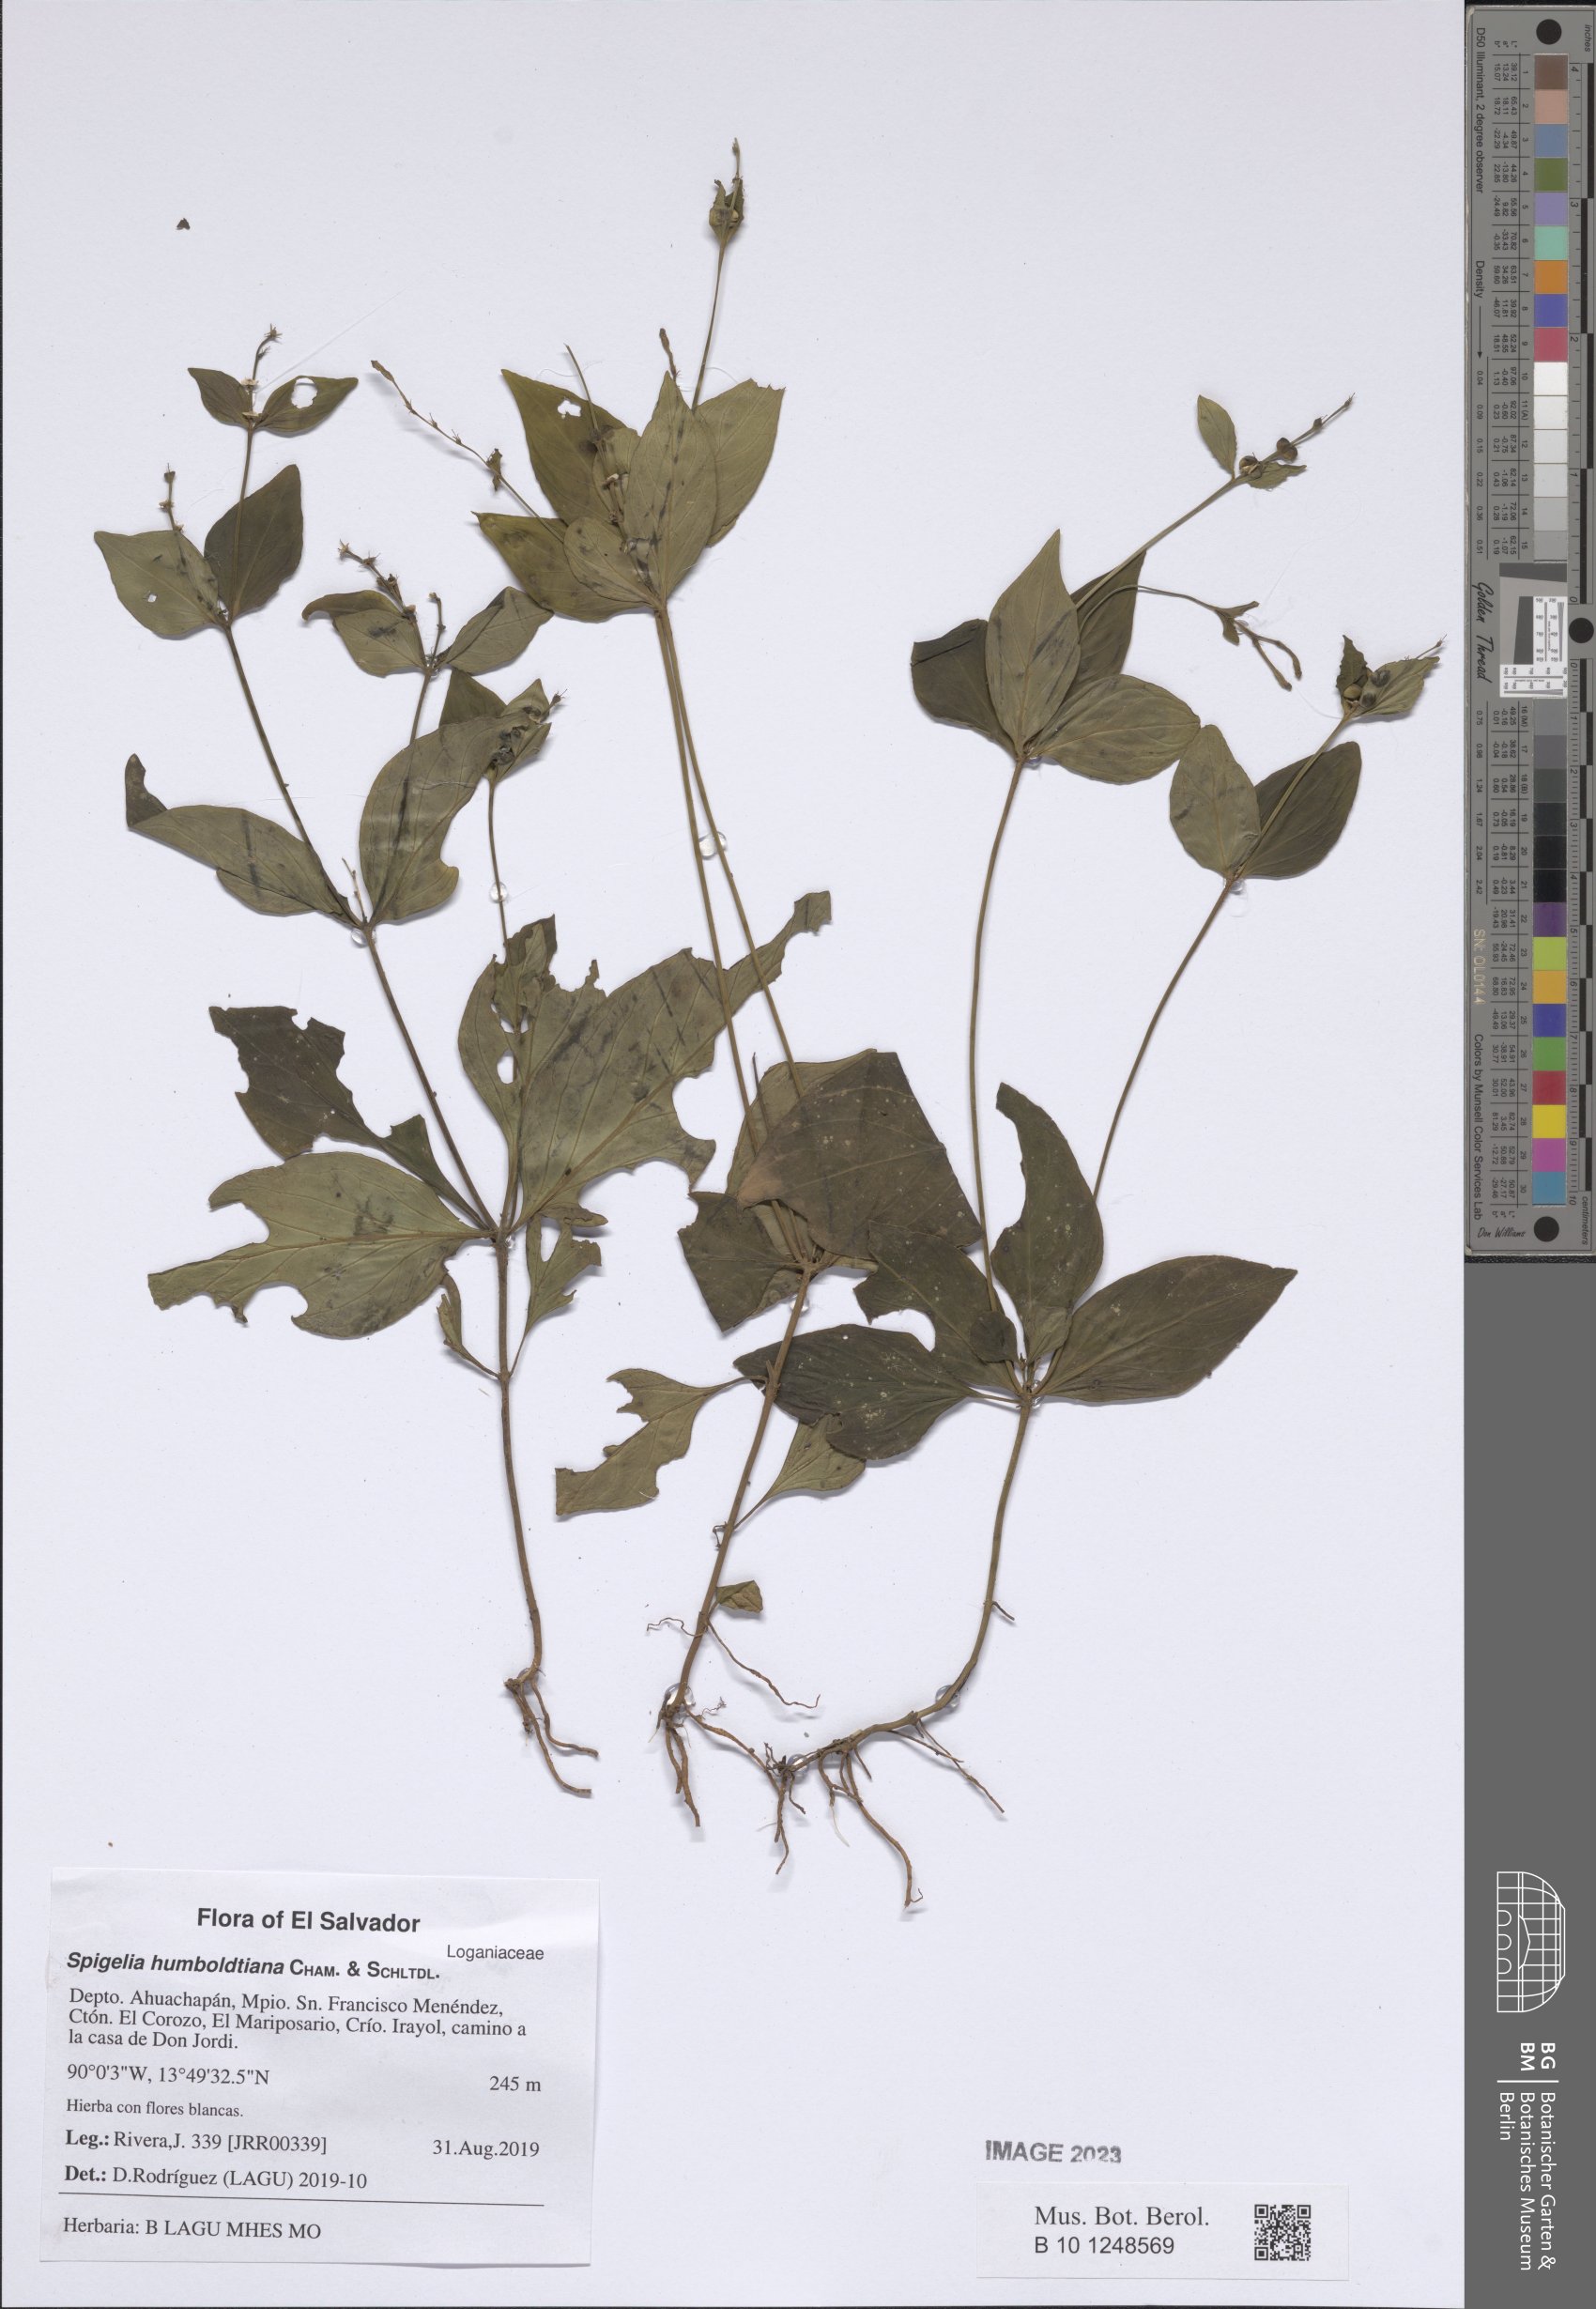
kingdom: Plantae
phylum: Tracheophyta
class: Magnoliopsida
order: Gentianales
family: Loganiaceae
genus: Spigelia
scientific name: Spigelia humboldtiana
